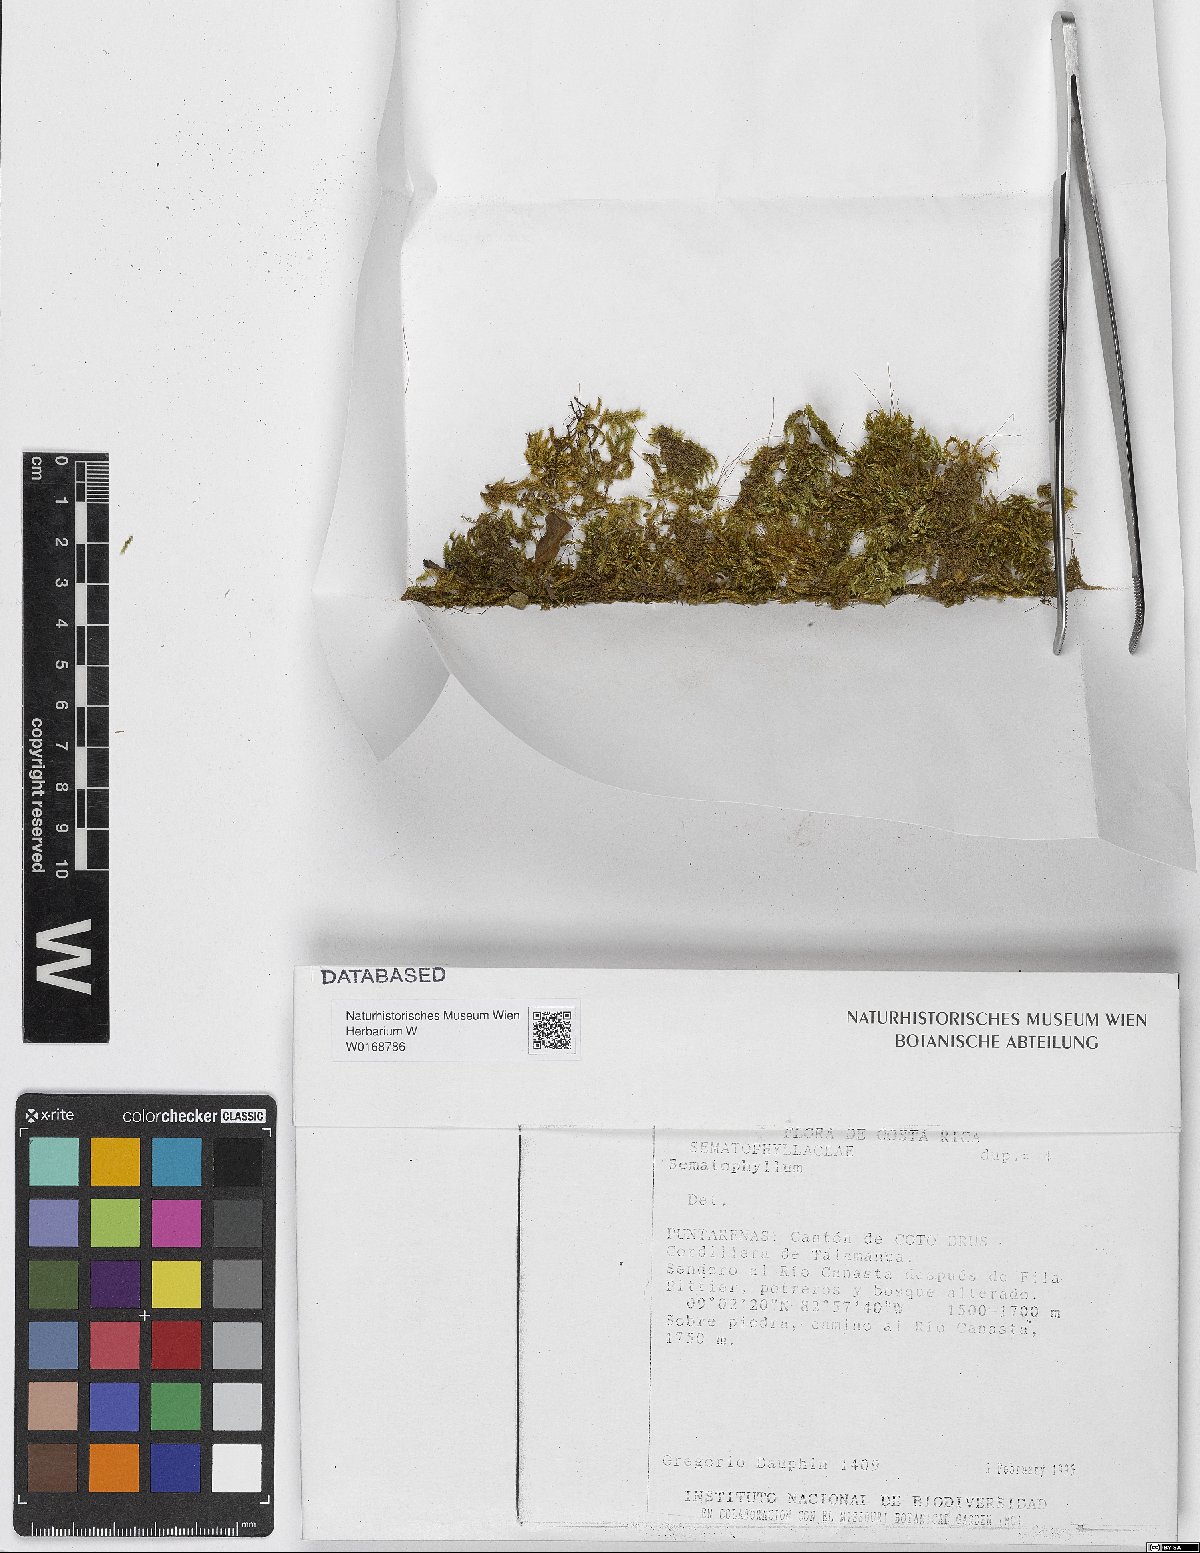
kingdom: Plantae
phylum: Bryophyta
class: Bryopsida
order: Hypnales
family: Sematophyllaceae
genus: Sematophyllum
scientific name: Sematophyllum
